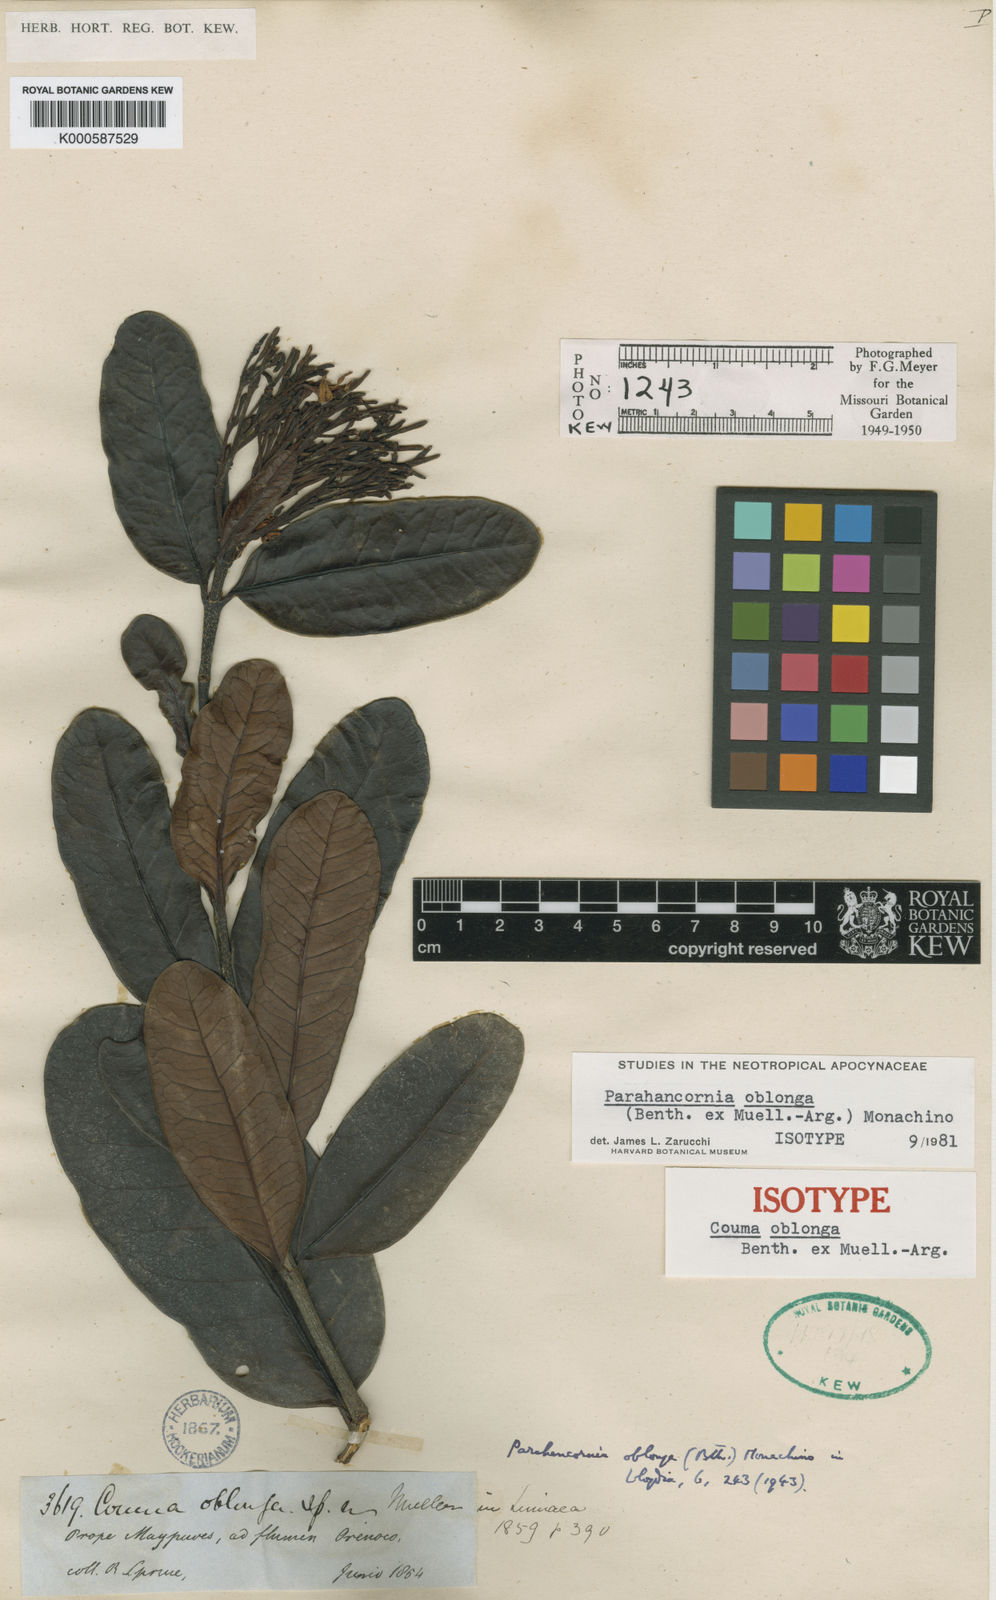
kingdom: Plantae
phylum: Tracheophyta
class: Magnoliopsida
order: Gentianales
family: Apocynaceae
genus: Parahancornia
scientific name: Parahancornia
